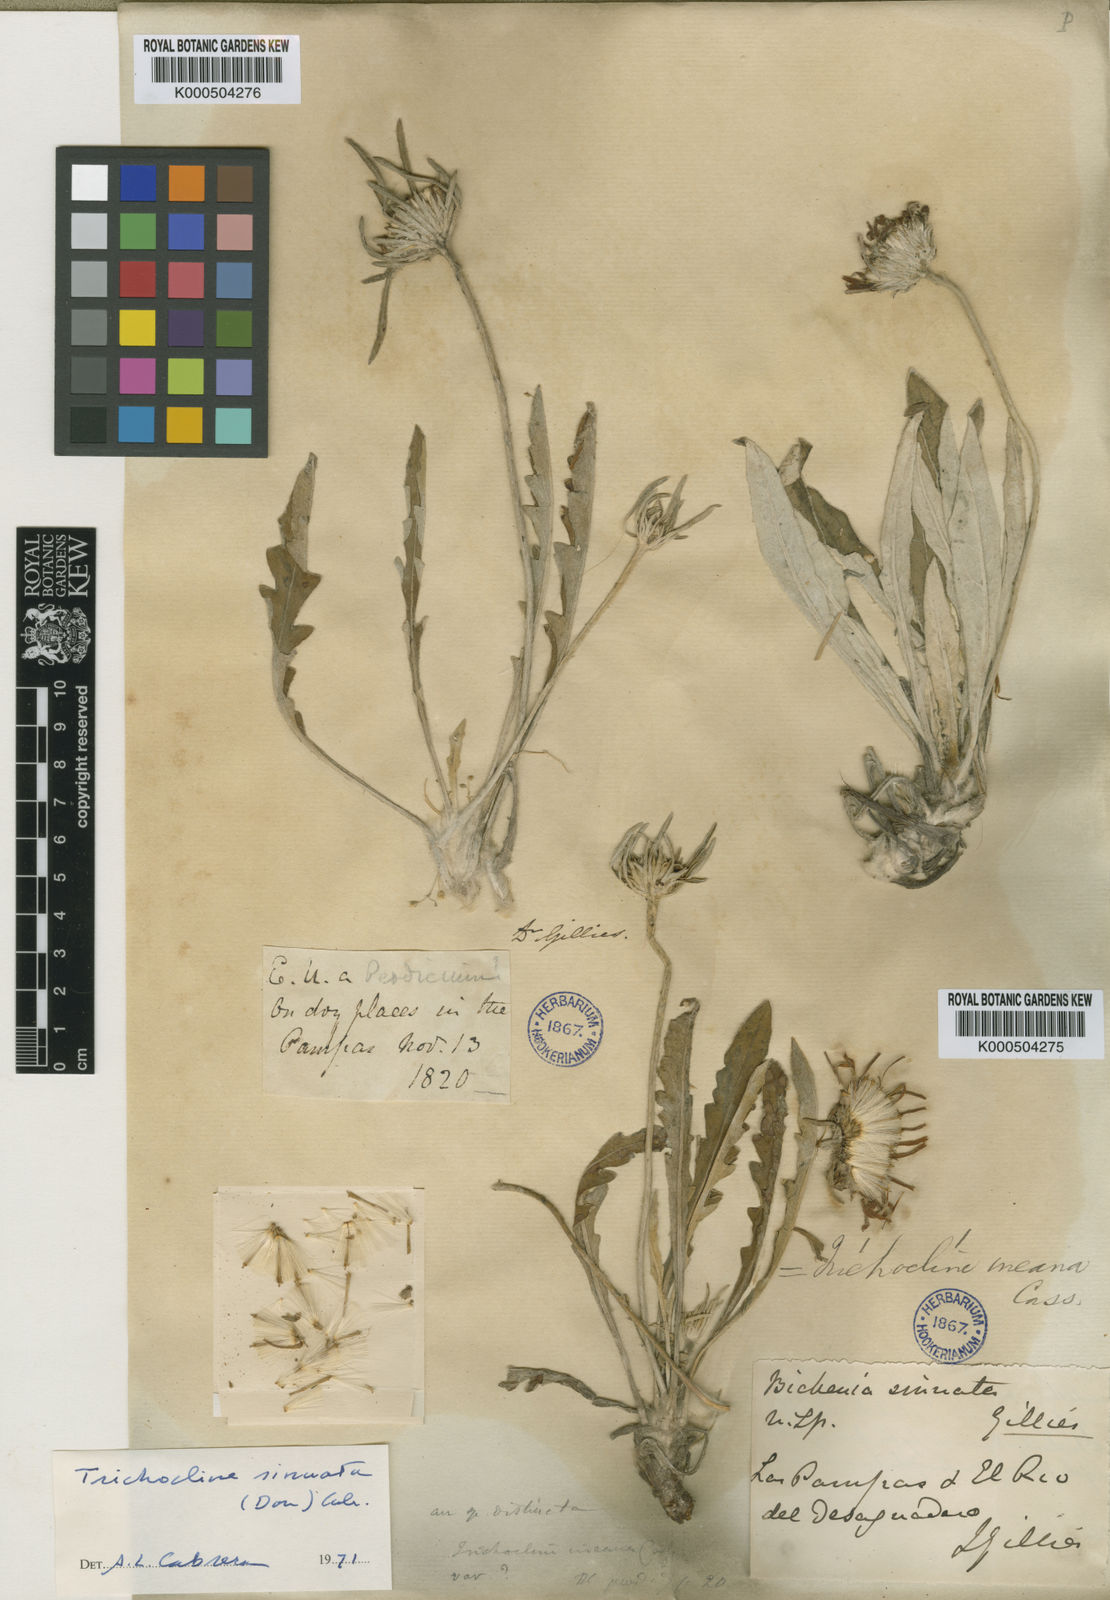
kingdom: Plantae
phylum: Tracheophyta
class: Magnoliopsida
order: Asterales
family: Asteraceae
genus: Trichocline
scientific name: Trichocline sinuata
